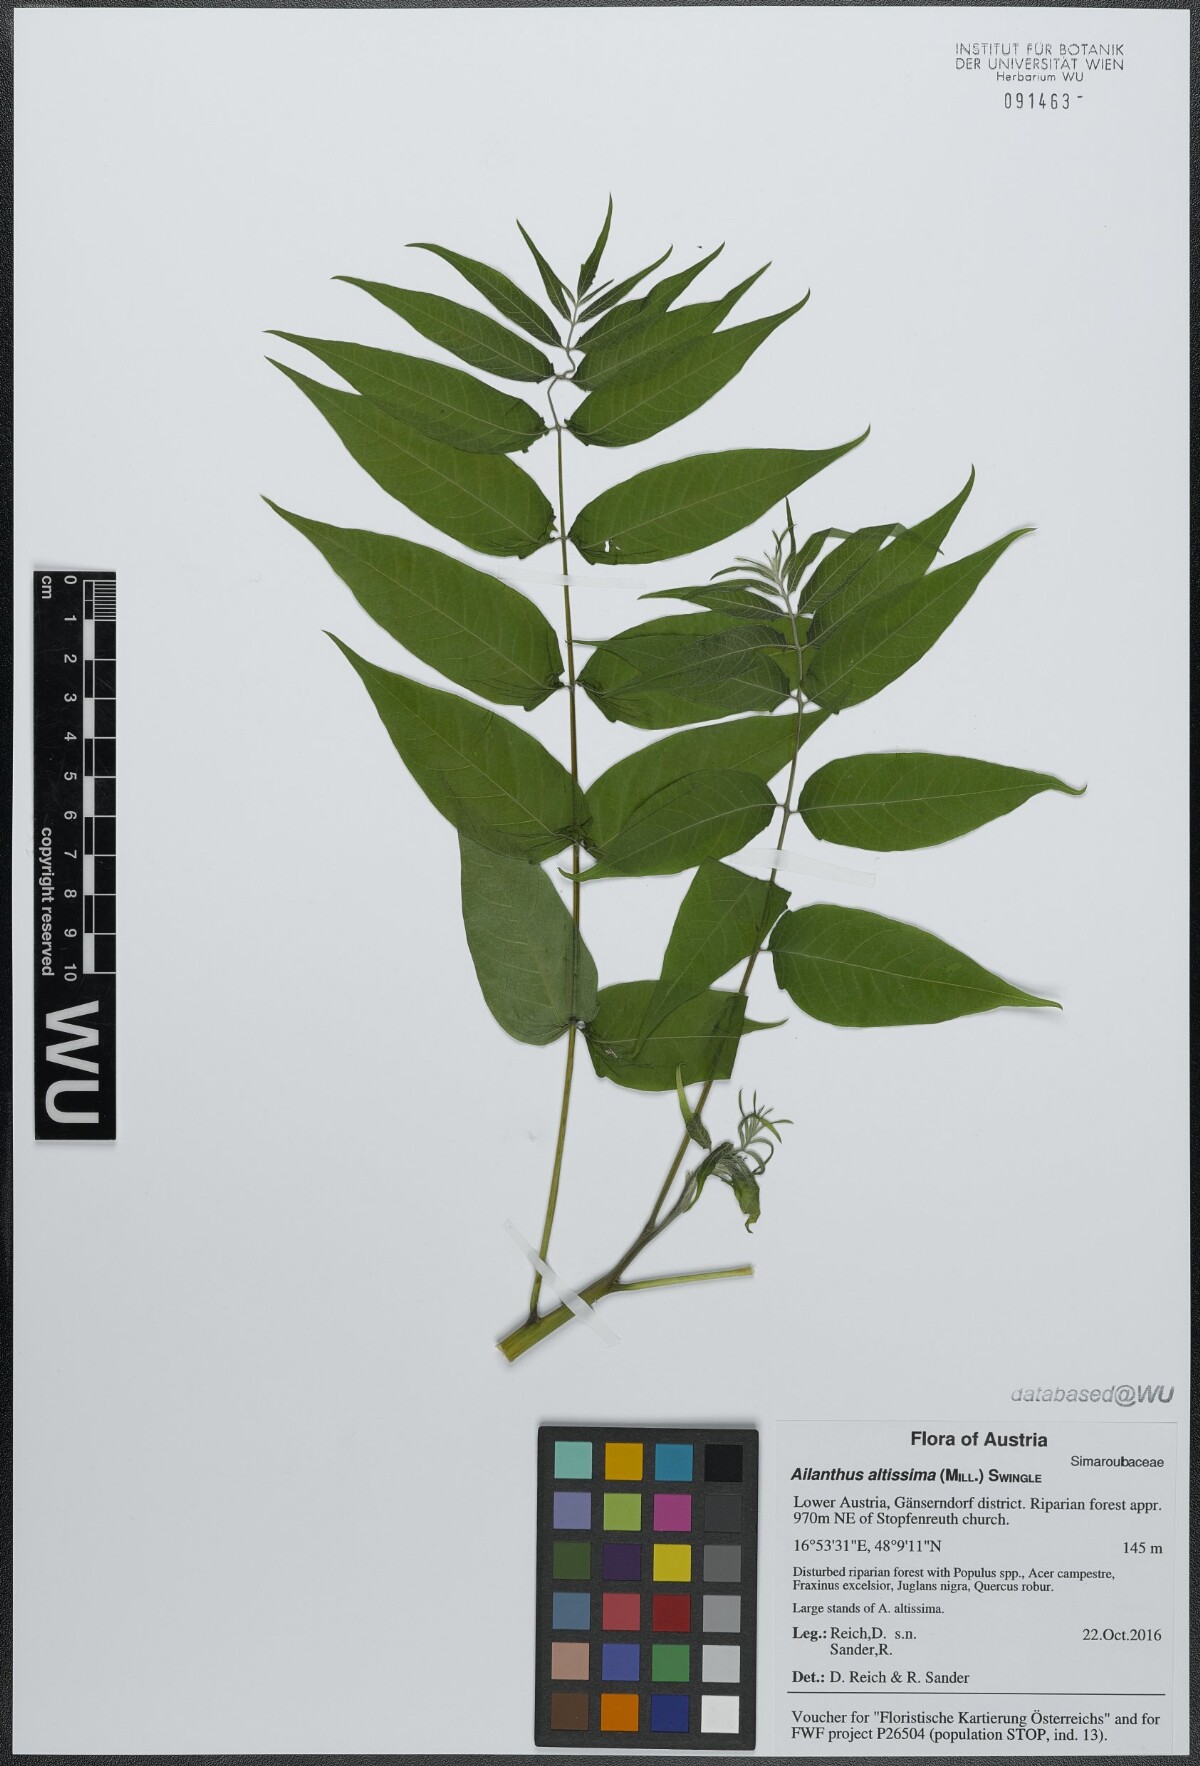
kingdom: Plantae
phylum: Tracheophyta
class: Magnoliopsida
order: Sapindales
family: Simaroubaceae
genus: Ailanthus
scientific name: Ailanthus altissima
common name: Tree-of-heaven
